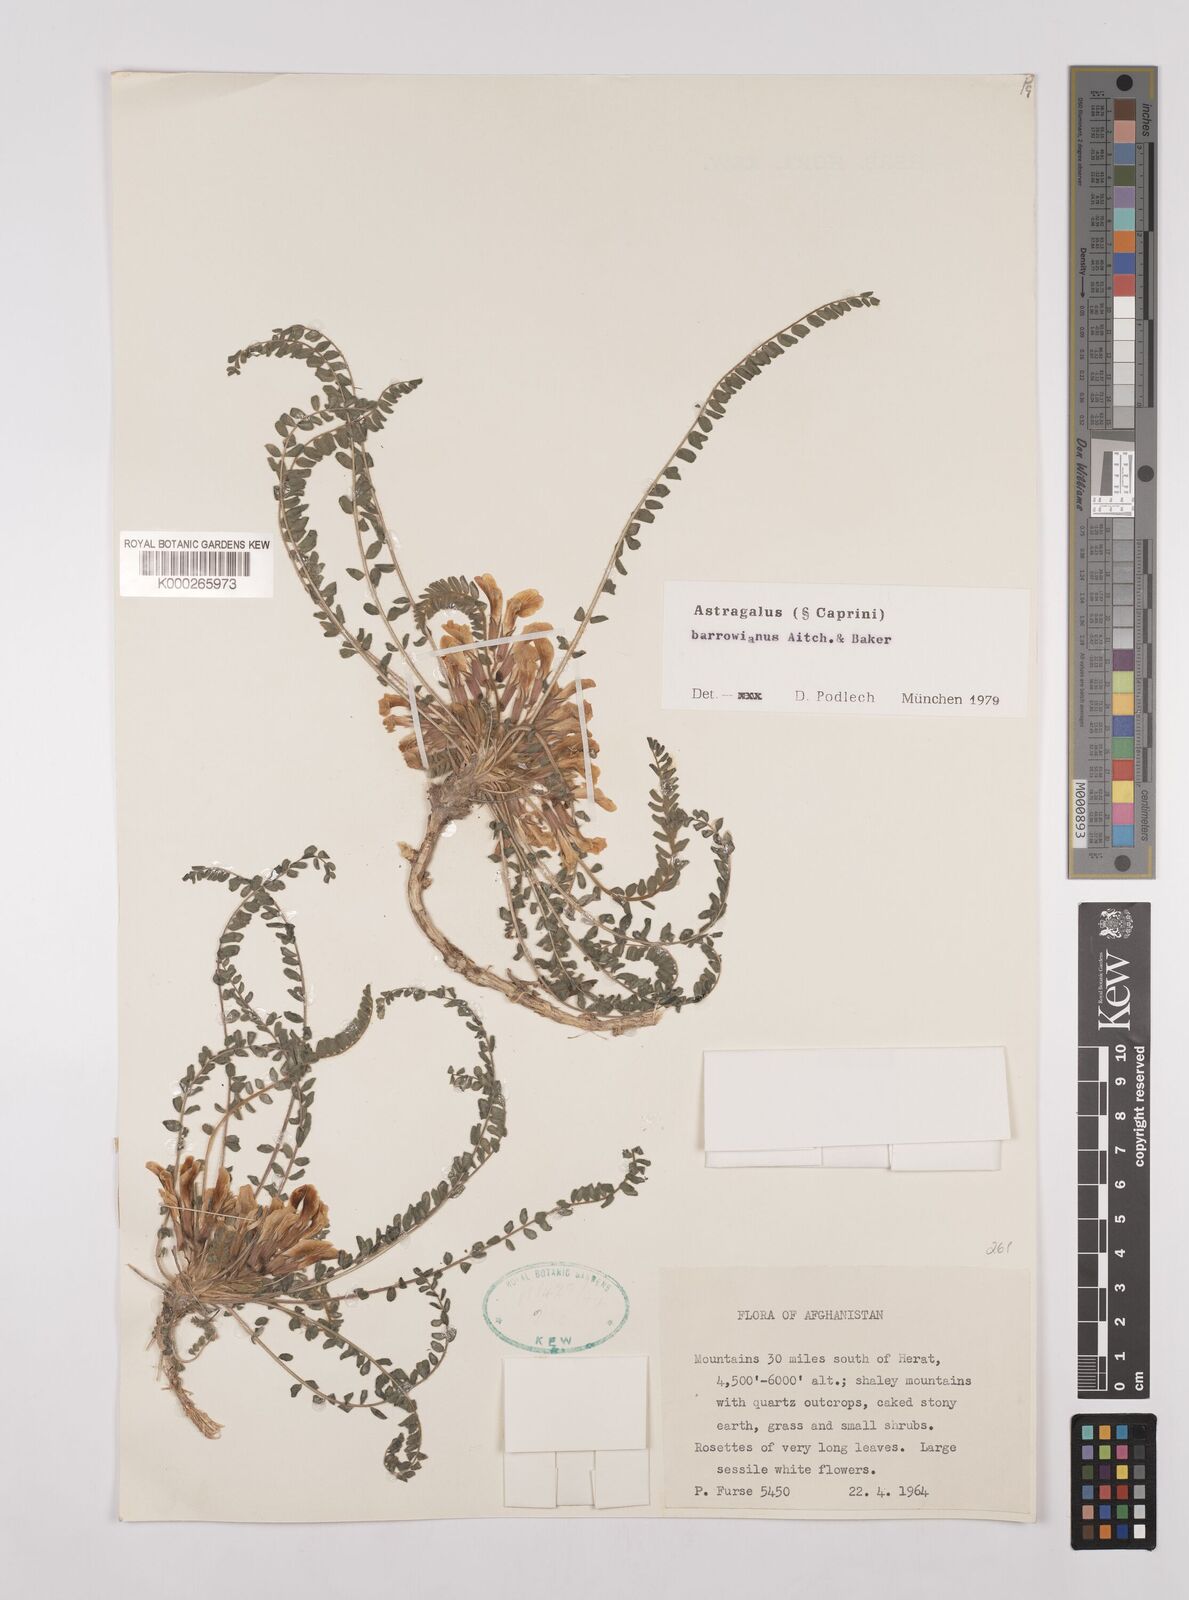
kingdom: Plantae
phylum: Tracheophyta
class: Magnoliopsida
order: Fabales
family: Fabaceae
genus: Astragalus
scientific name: Astragalus citrinus
